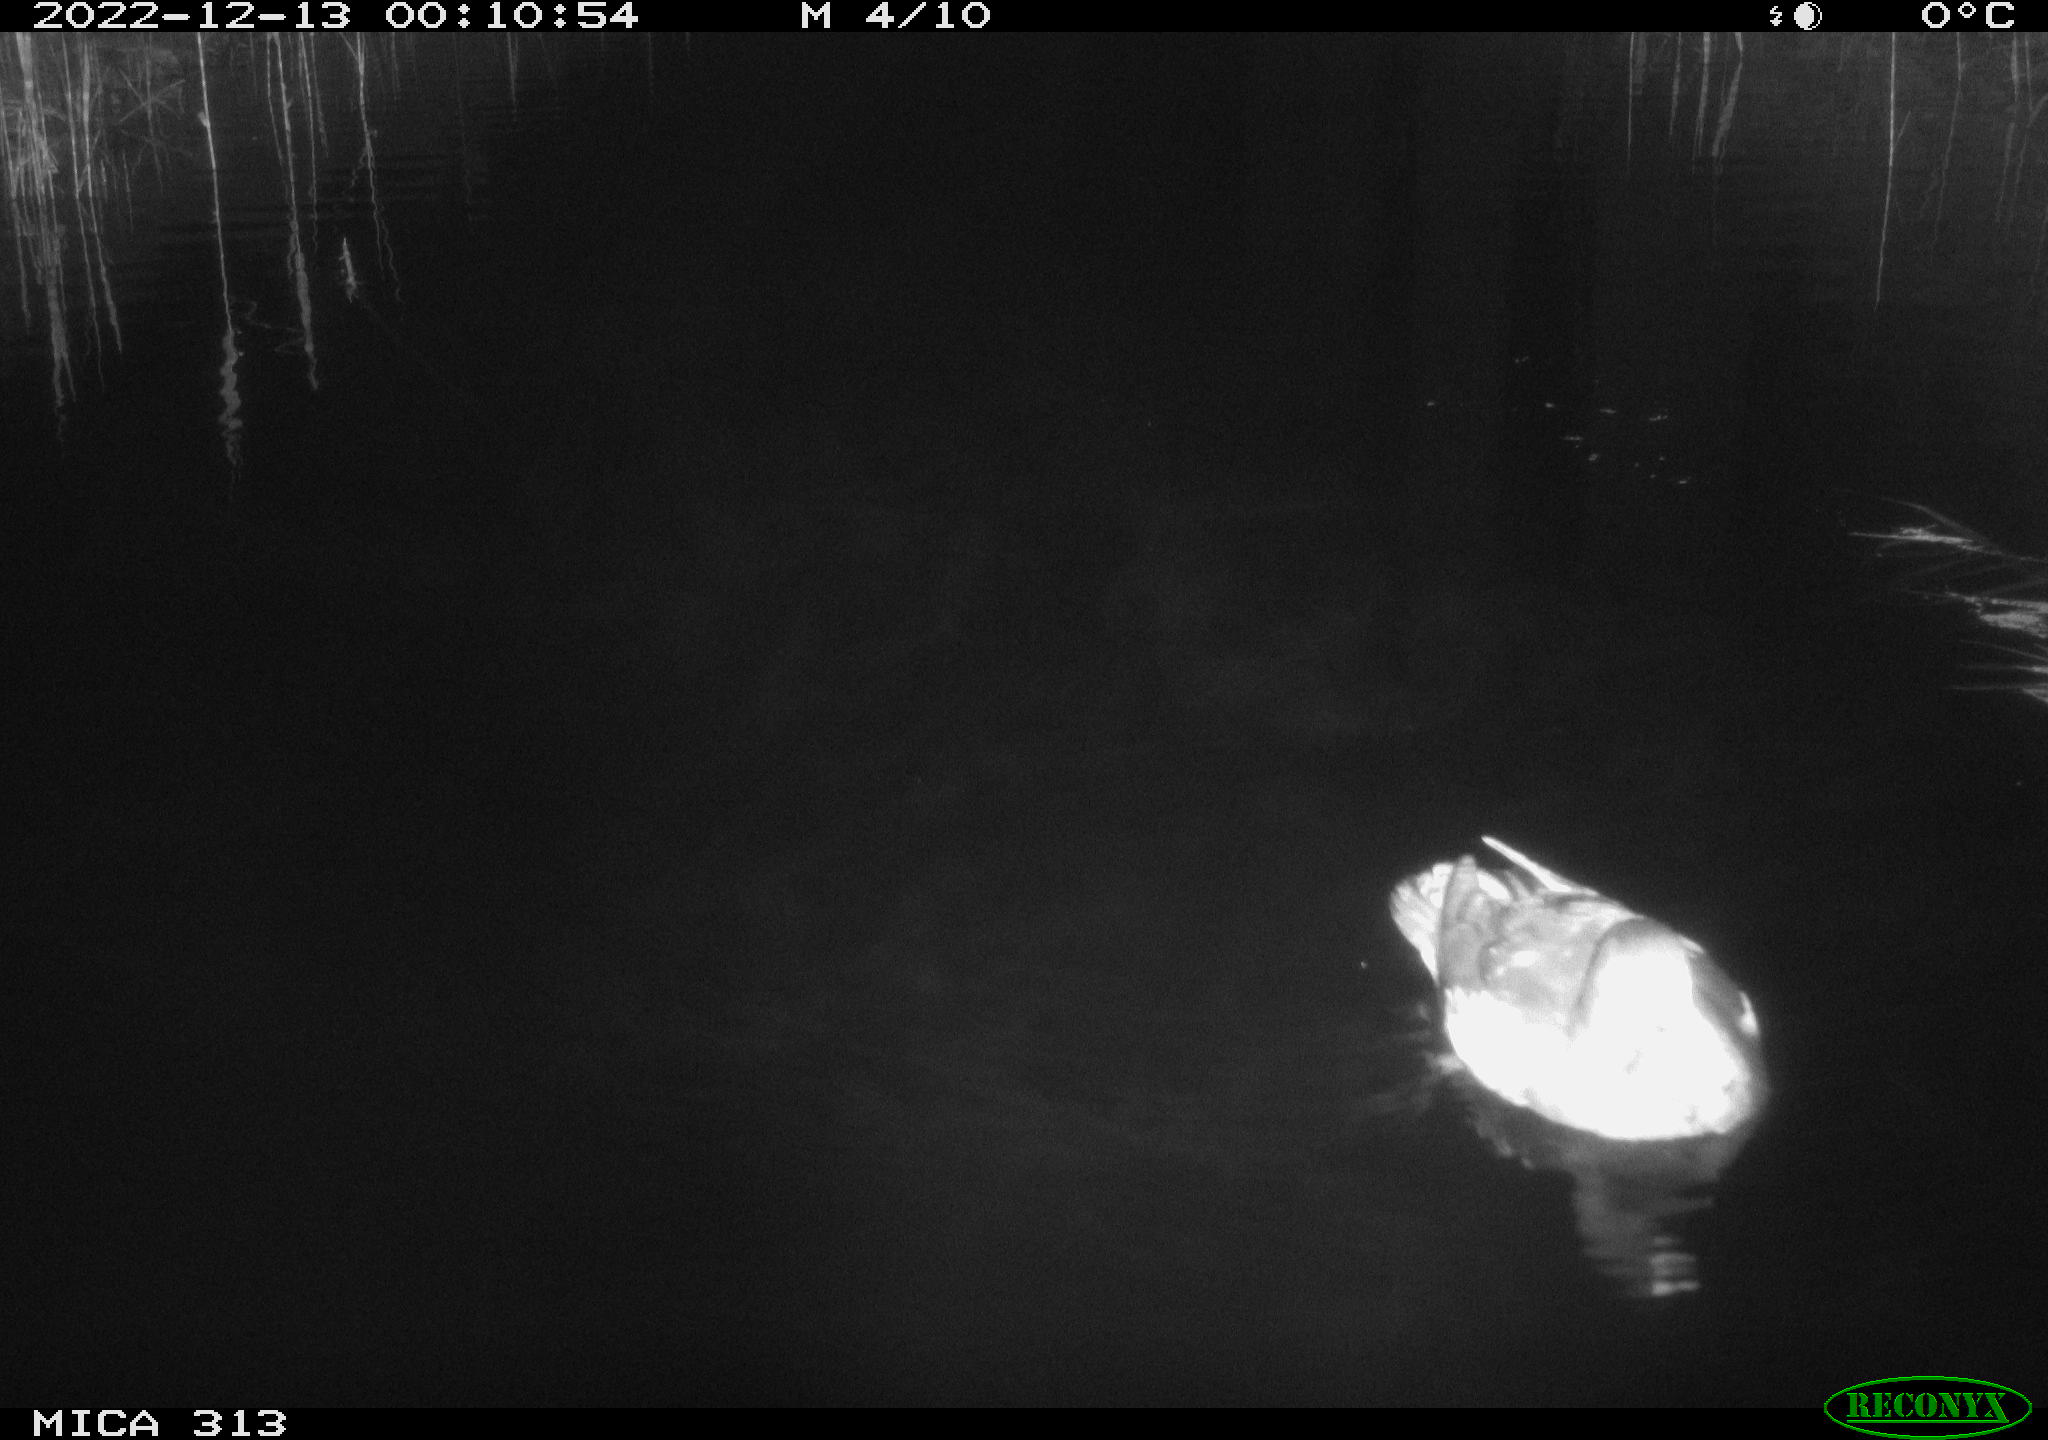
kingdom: Animalia
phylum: Chordata
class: Aves
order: Gruiformes
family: Rallidae
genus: Gallinula
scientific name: Gallinula chloropus
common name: Common moorhen
